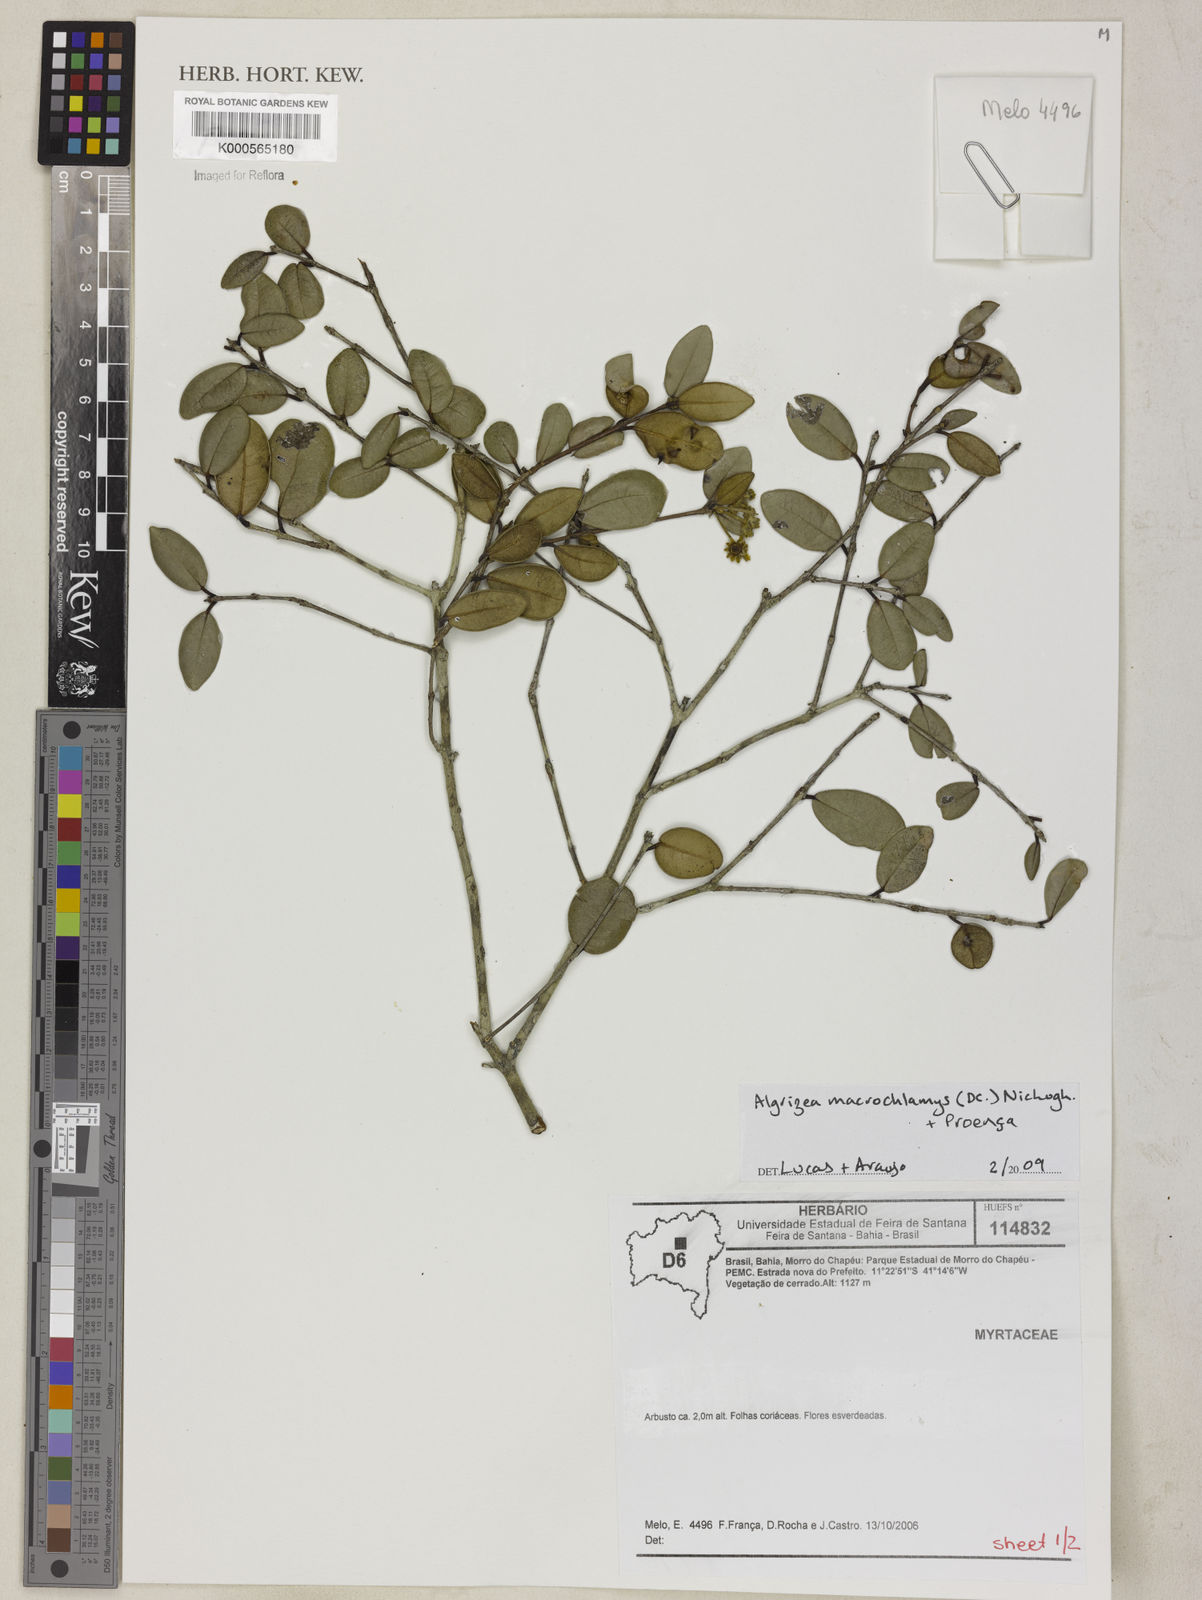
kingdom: Plantae
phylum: Tracheophyta
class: Magnoliopsida
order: Myrtales
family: Myrtaceae
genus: Algrizea
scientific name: Algrizea
